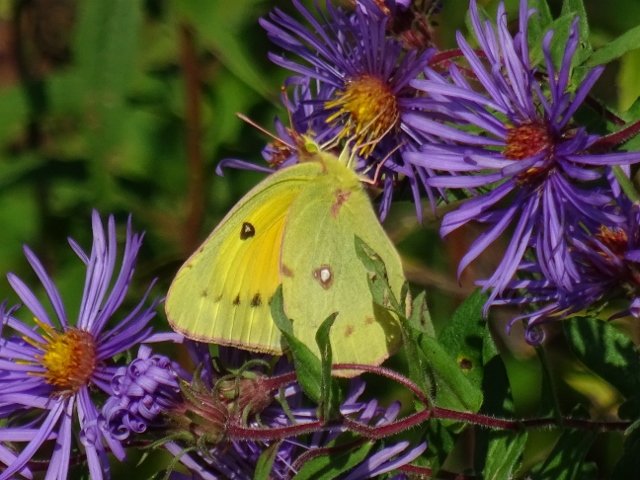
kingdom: Animalia
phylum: Arthropoda
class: Insecta
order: Lepidoptera
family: Pieridae
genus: Colias
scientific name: Colias eurytheme
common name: Orange Sulphur
